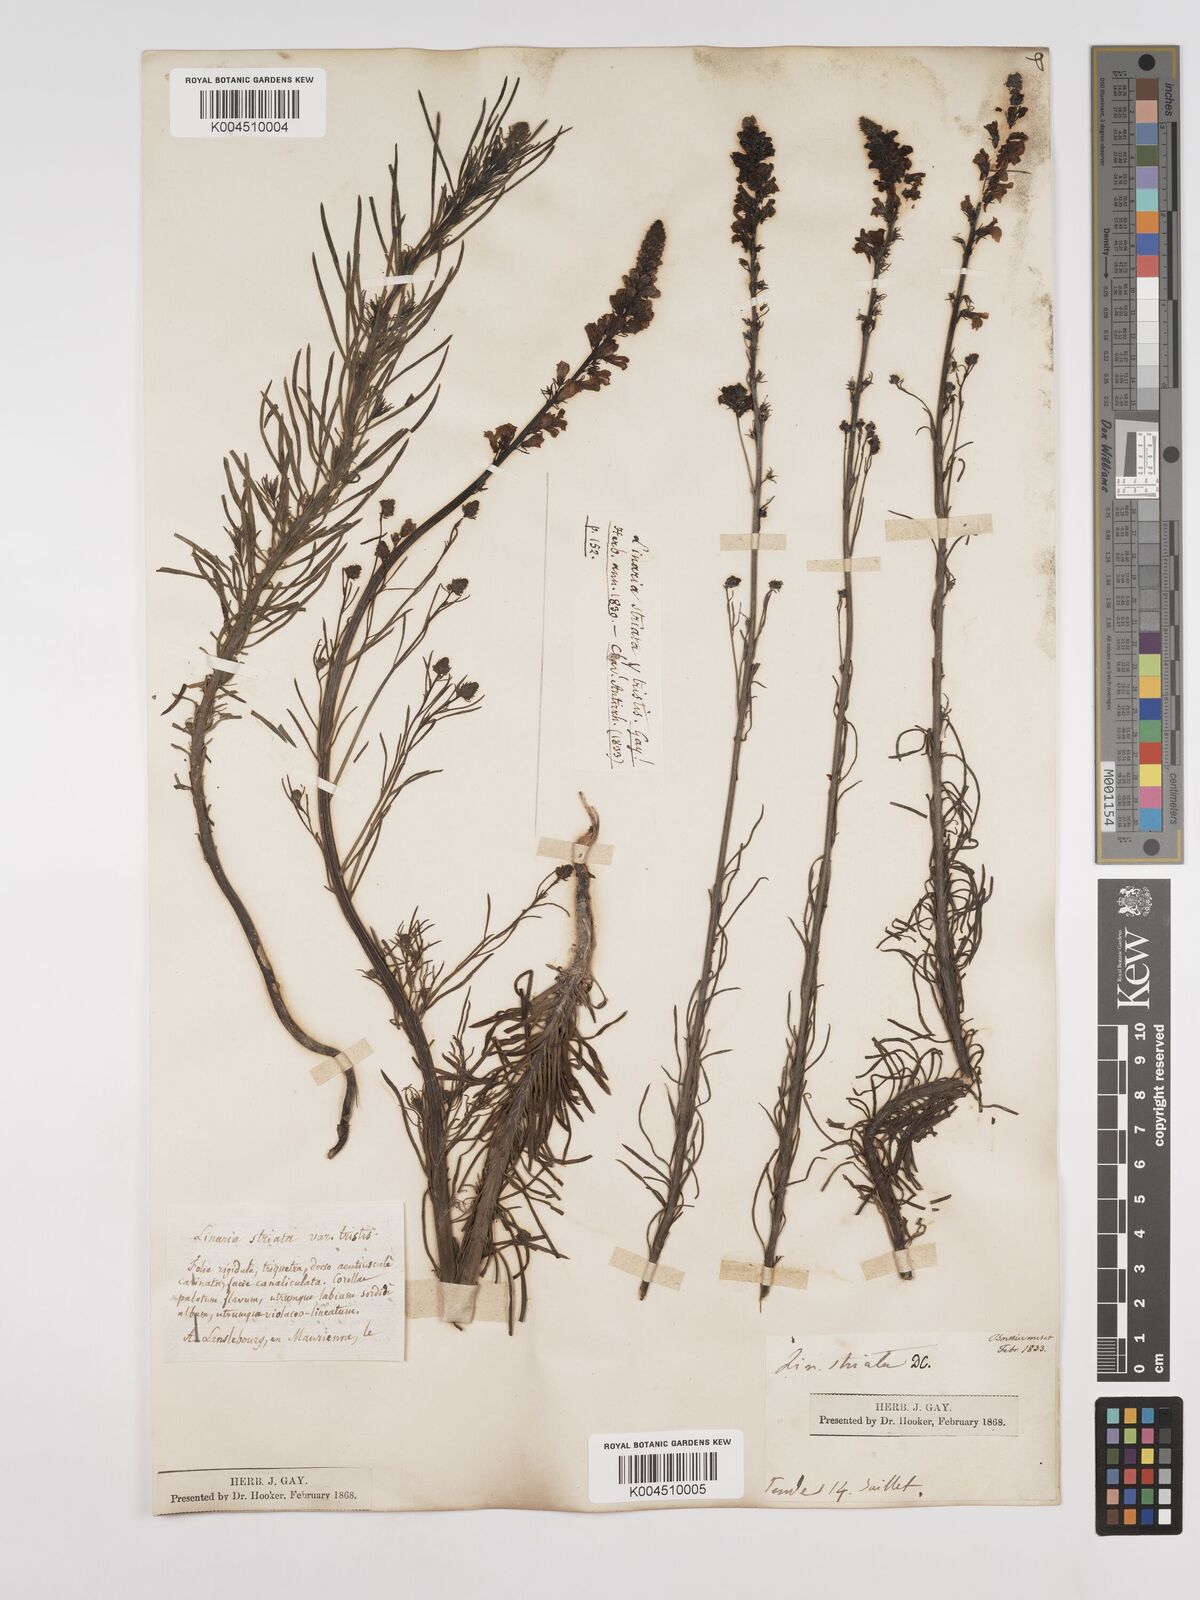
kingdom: Plantae
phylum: Tracheophyta
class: Magnoliopsida
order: Lamiales
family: Plantaginaceae
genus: Linaria
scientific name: Linaria repens
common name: Pale toadflax
